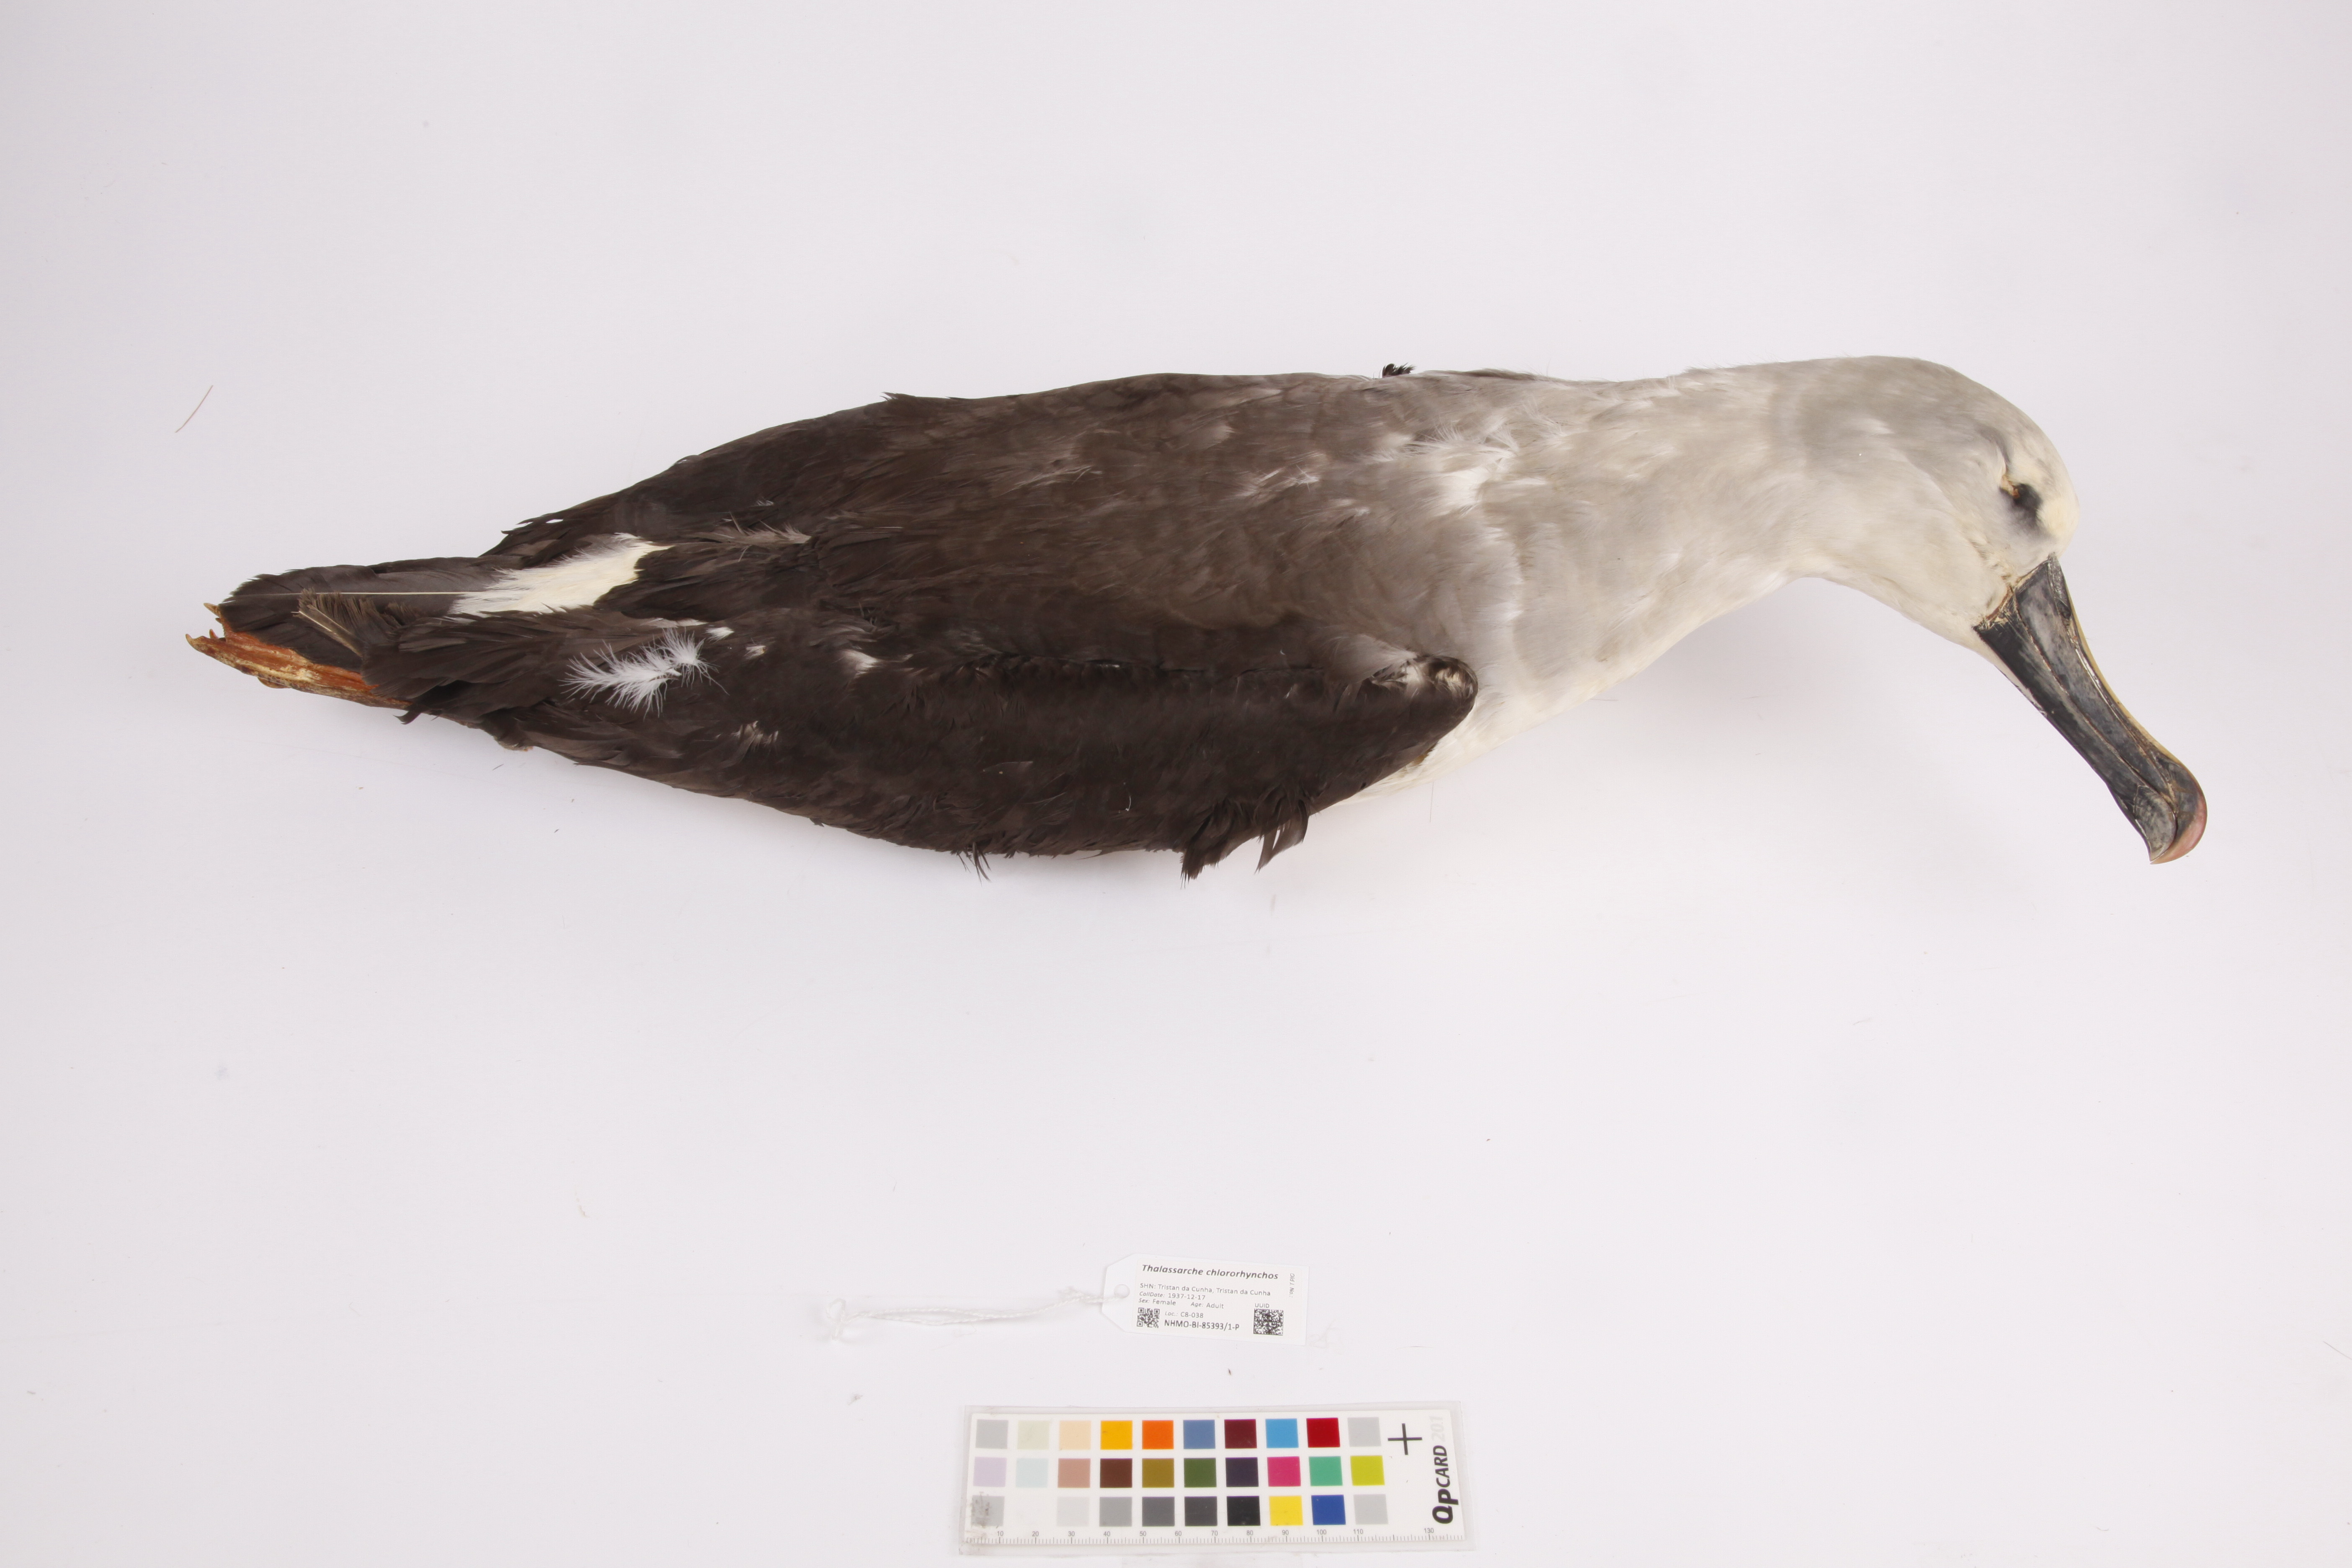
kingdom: Animalia
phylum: Chordata
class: Aves
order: Procellariiformes
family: Diomedeidae
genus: Thalassarche
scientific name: Thalassarche chlororhynchos
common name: Atlantic yellow-nosed albatross
